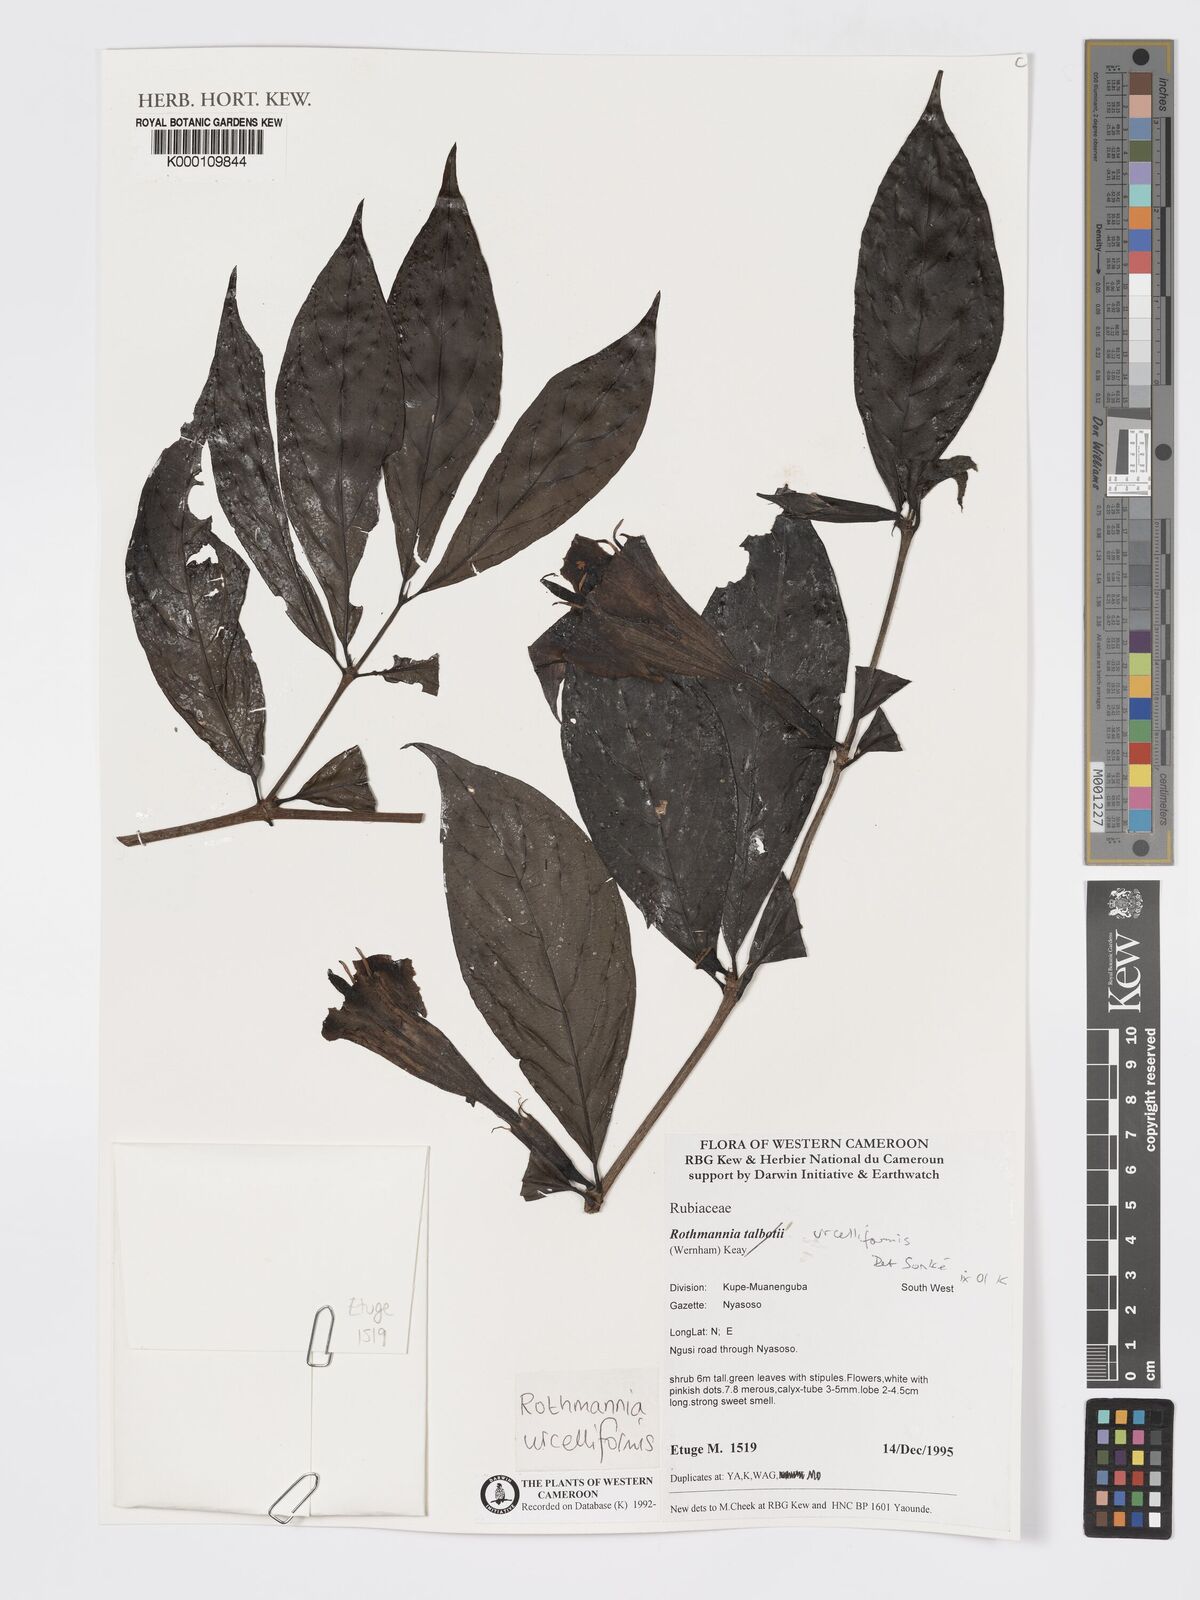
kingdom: Plantae
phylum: Tracheophyta
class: Magnoliopsida
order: Gentianales
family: Rubiaceae
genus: Rothmannia
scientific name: Rothmannia urcelliformis
